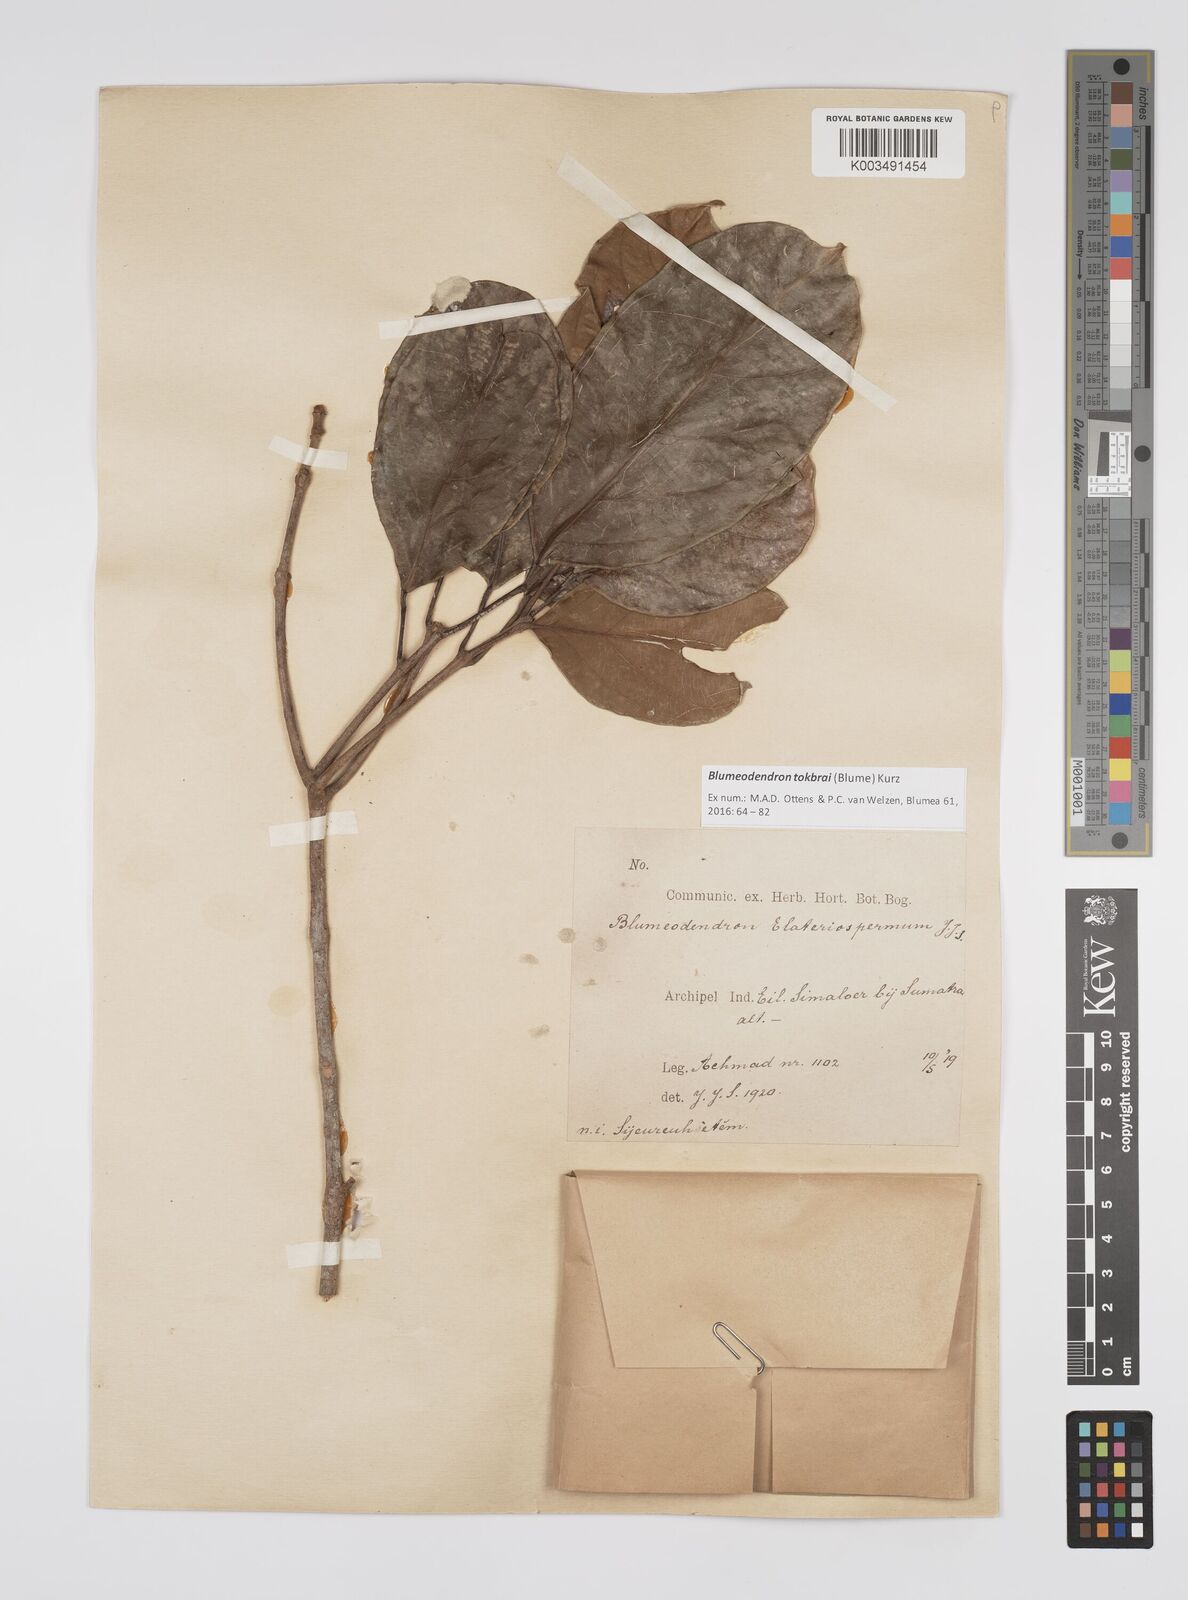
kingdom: Plantae
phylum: Tracheophyta
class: Magnoliopsida
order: Malpighiales
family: Euphorbiaceae
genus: Blumeodendron
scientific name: Blumeodendron tokbrai
